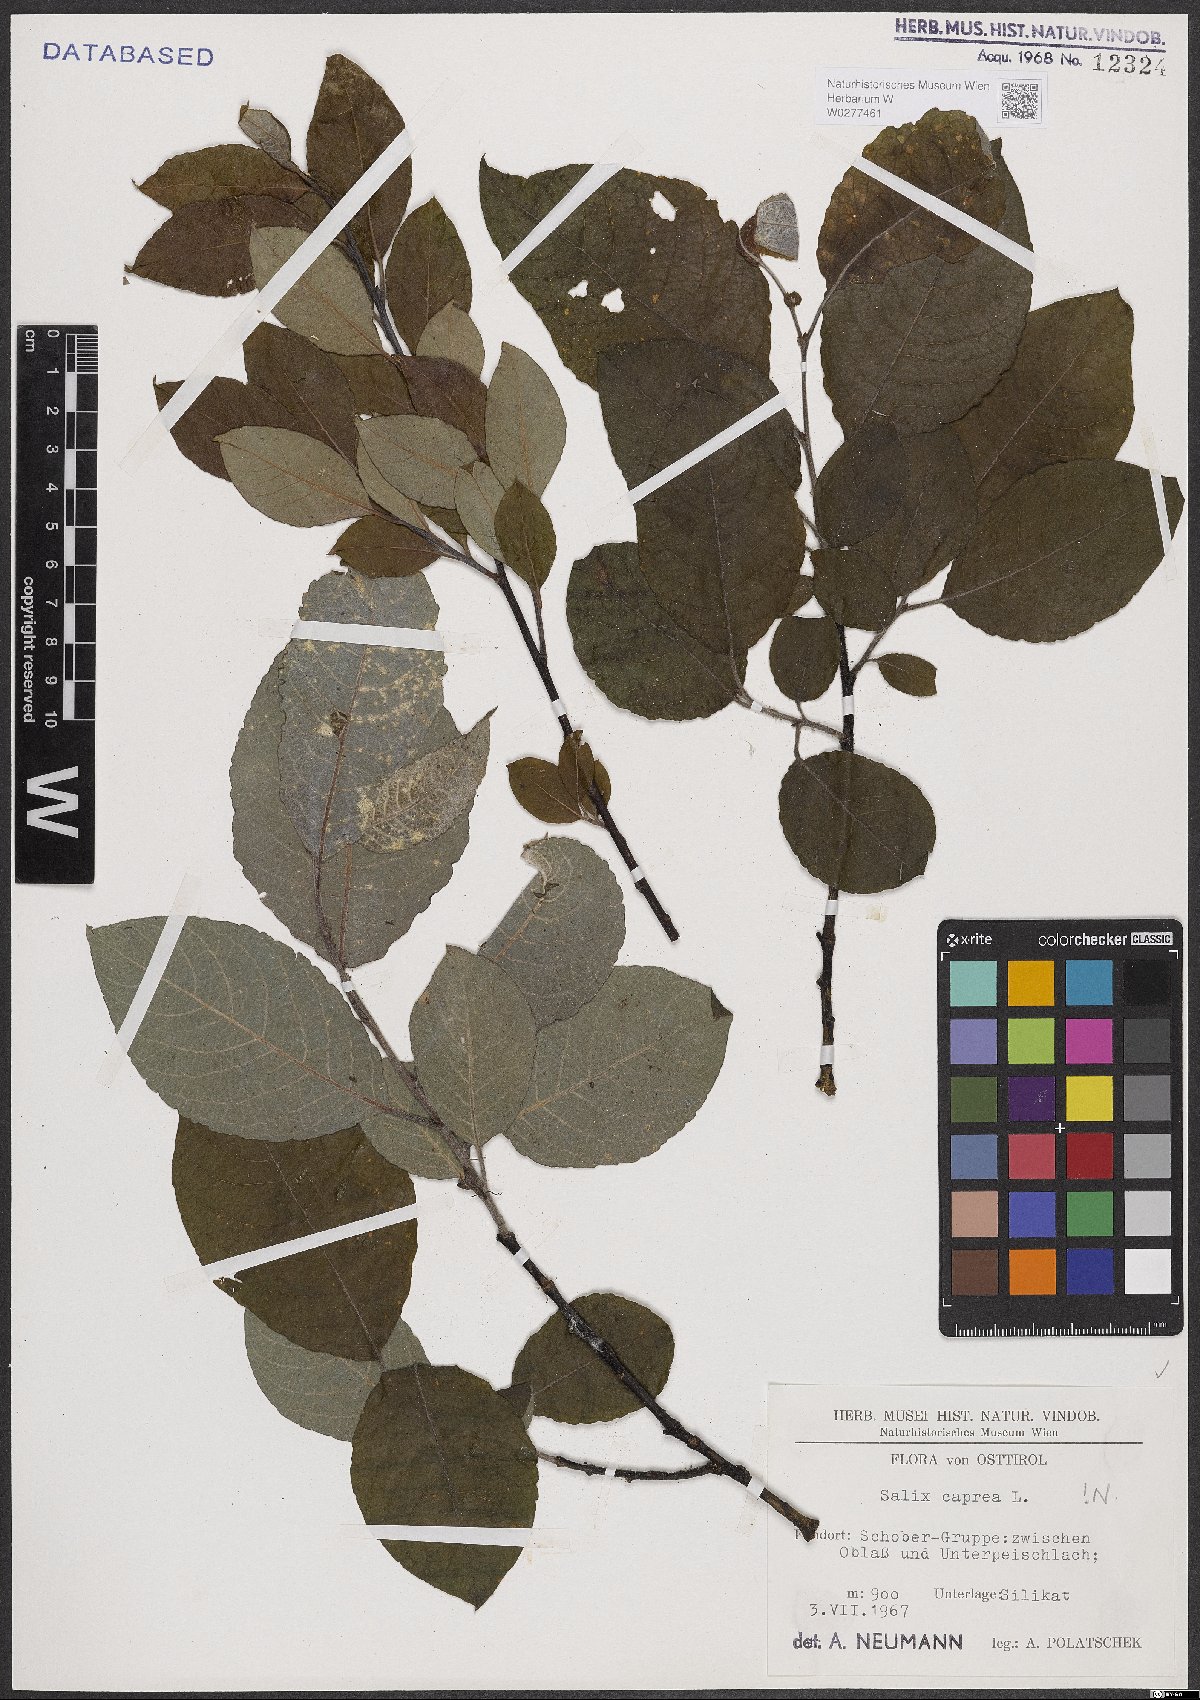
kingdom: Plantae
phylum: Tracheophyta
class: Magnoliopsida
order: Malpighiales
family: Salicaceae
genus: Salix
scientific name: Salix caprea
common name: Goat willow
